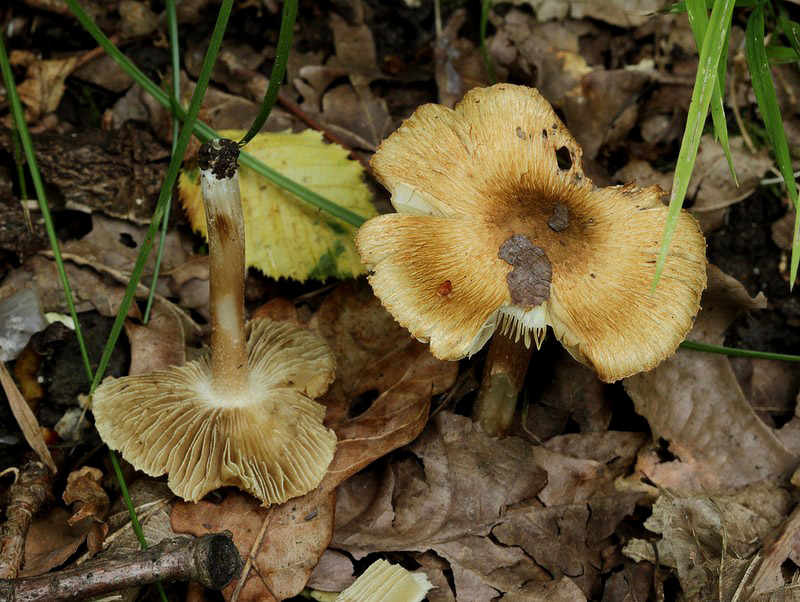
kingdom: Fungi
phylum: Basidiomycota
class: Agaricomycetes
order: Agaricales
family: Inocybaceae
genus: Pseudosperma
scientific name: Pseudosperma rimosum
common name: gulbladet trævlhat
